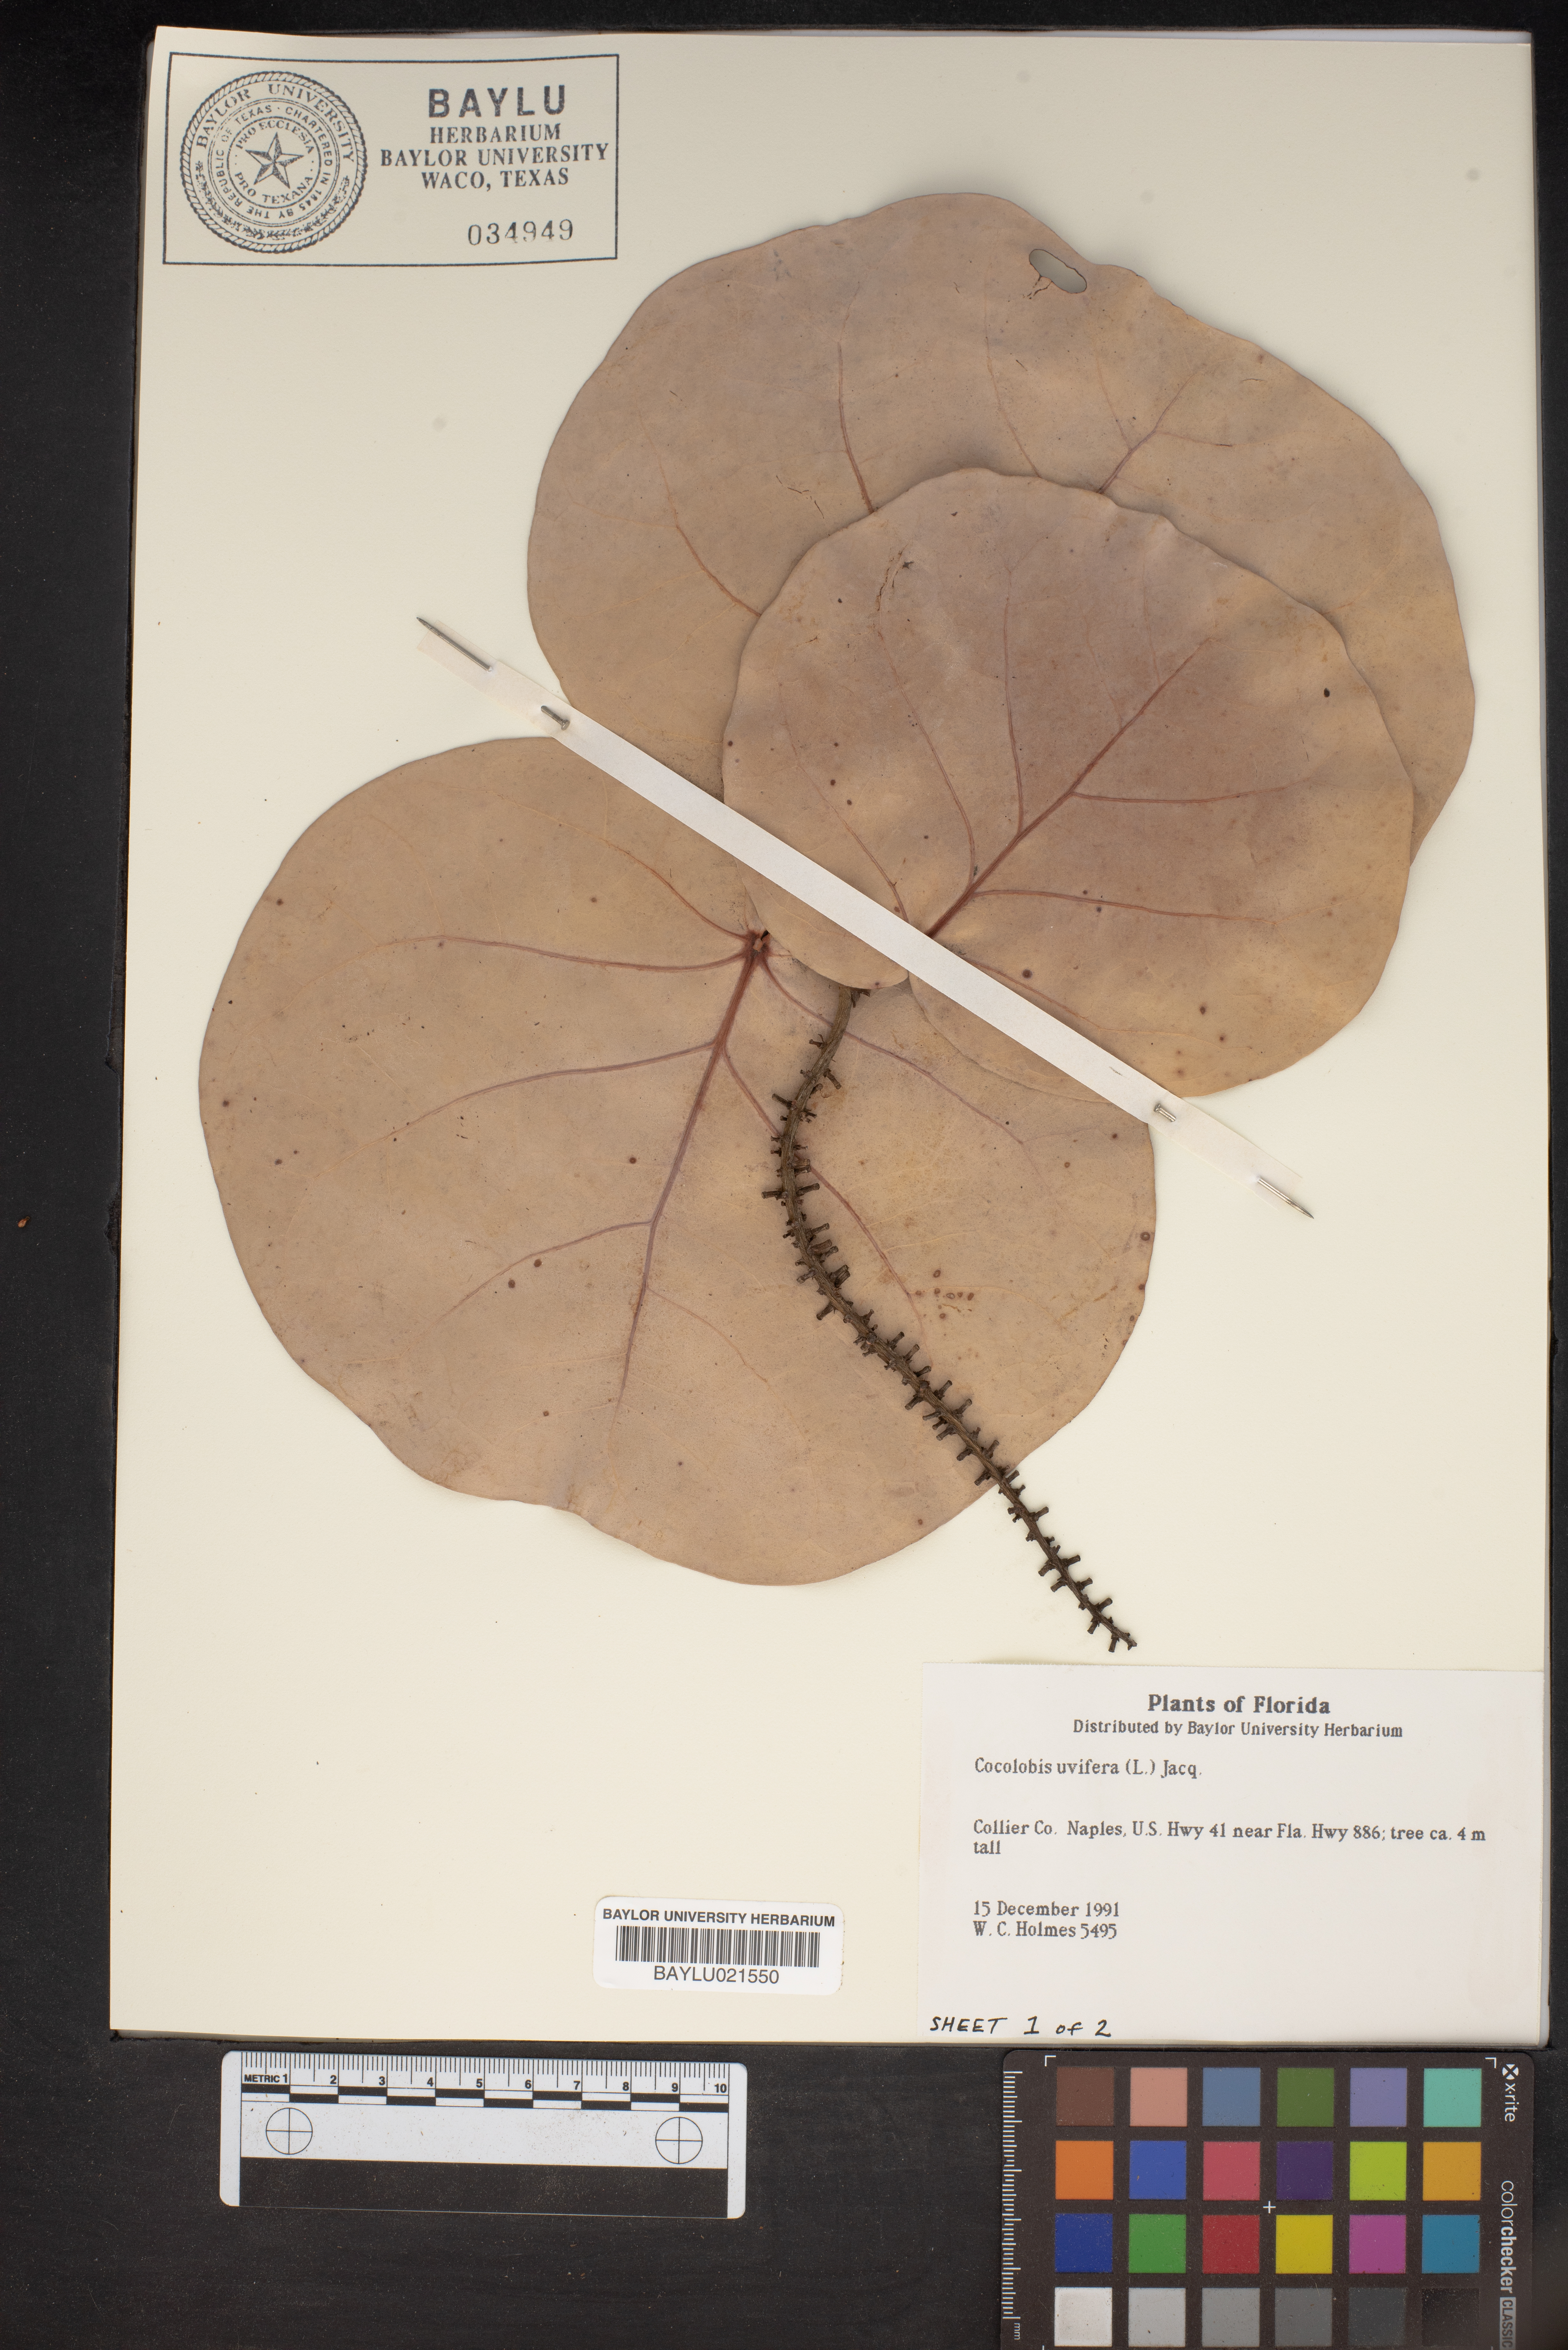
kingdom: Plantae
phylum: Tracheophyta
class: Magnoliopsida
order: Caryophyllales
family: Polygonaceae
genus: Coccoloba
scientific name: Coccoloba uvifera
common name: Seagrape
